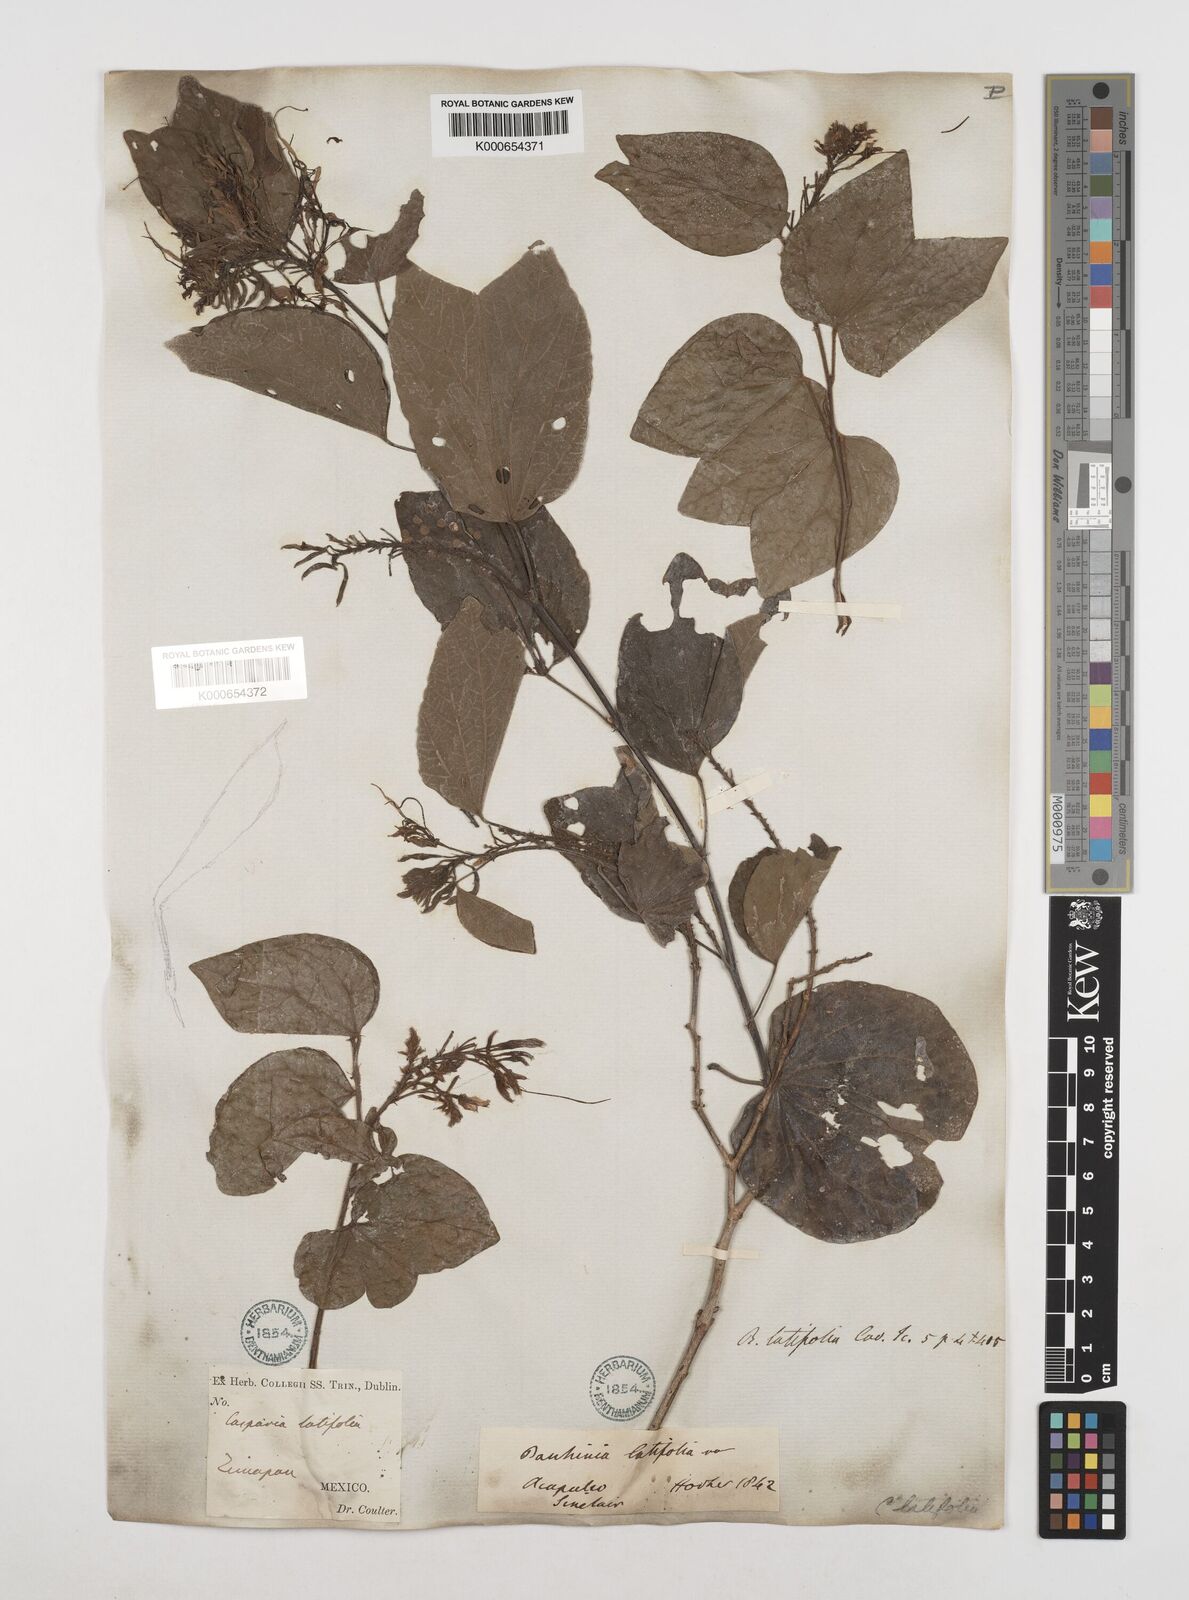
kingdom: Plantae
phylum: Tracheophyta
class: Magnoliopsida
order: Fabales
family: Fabaceae
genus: Bauhinia
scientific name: Bauhinia divaricata
